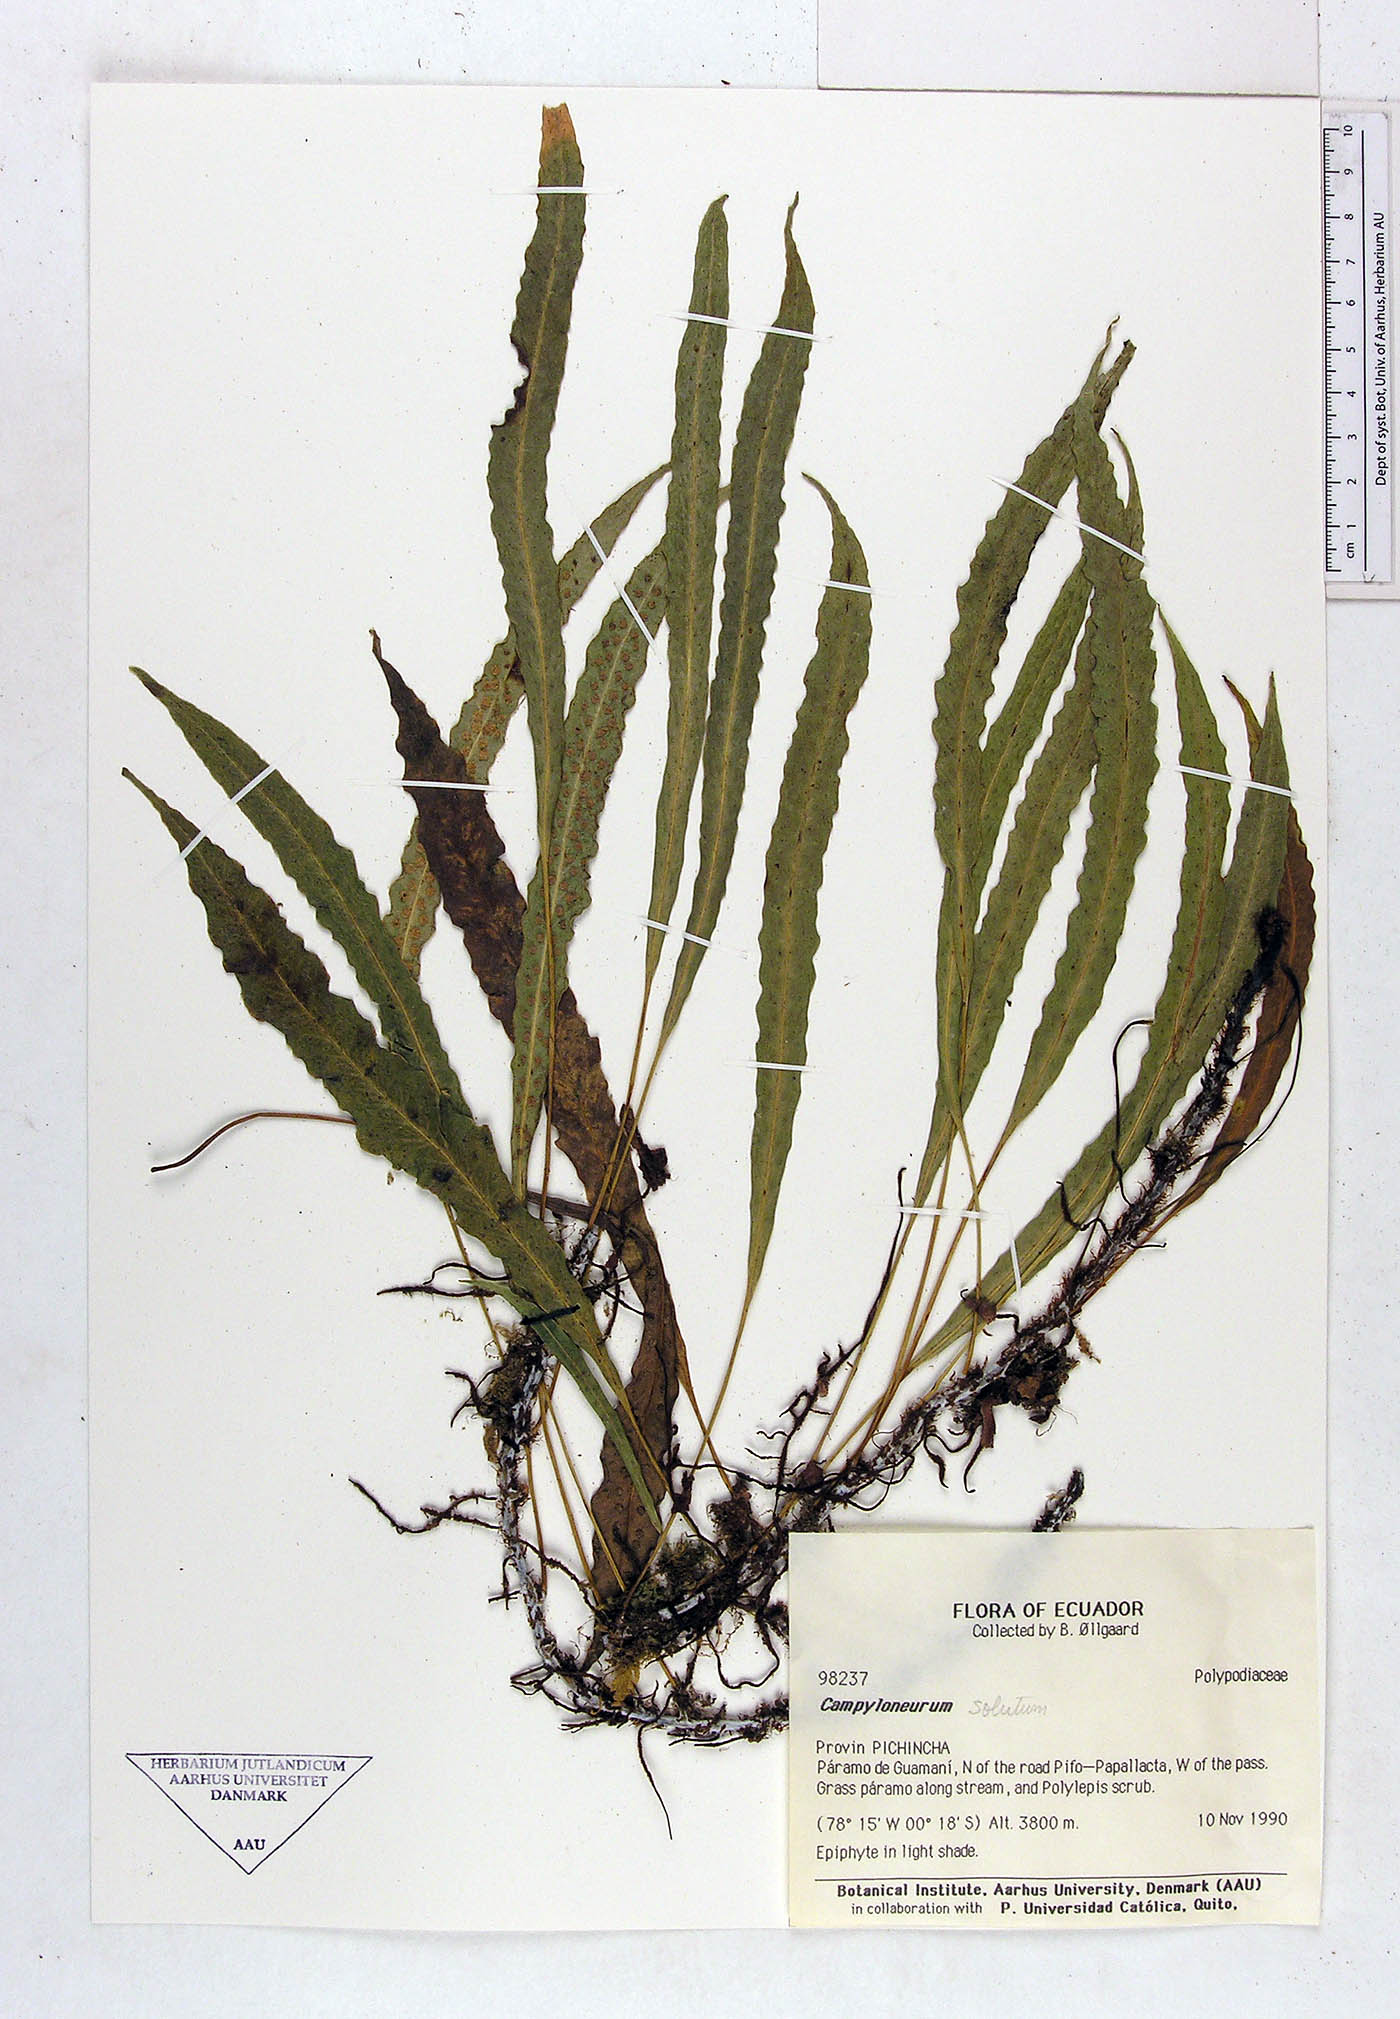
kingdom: Plantae
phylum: Tracheophyta
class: Polypodiopsida
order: Polypodiales
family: Polypodiaceae
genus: Campyloneurum
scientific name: Campyloneurum solutum
